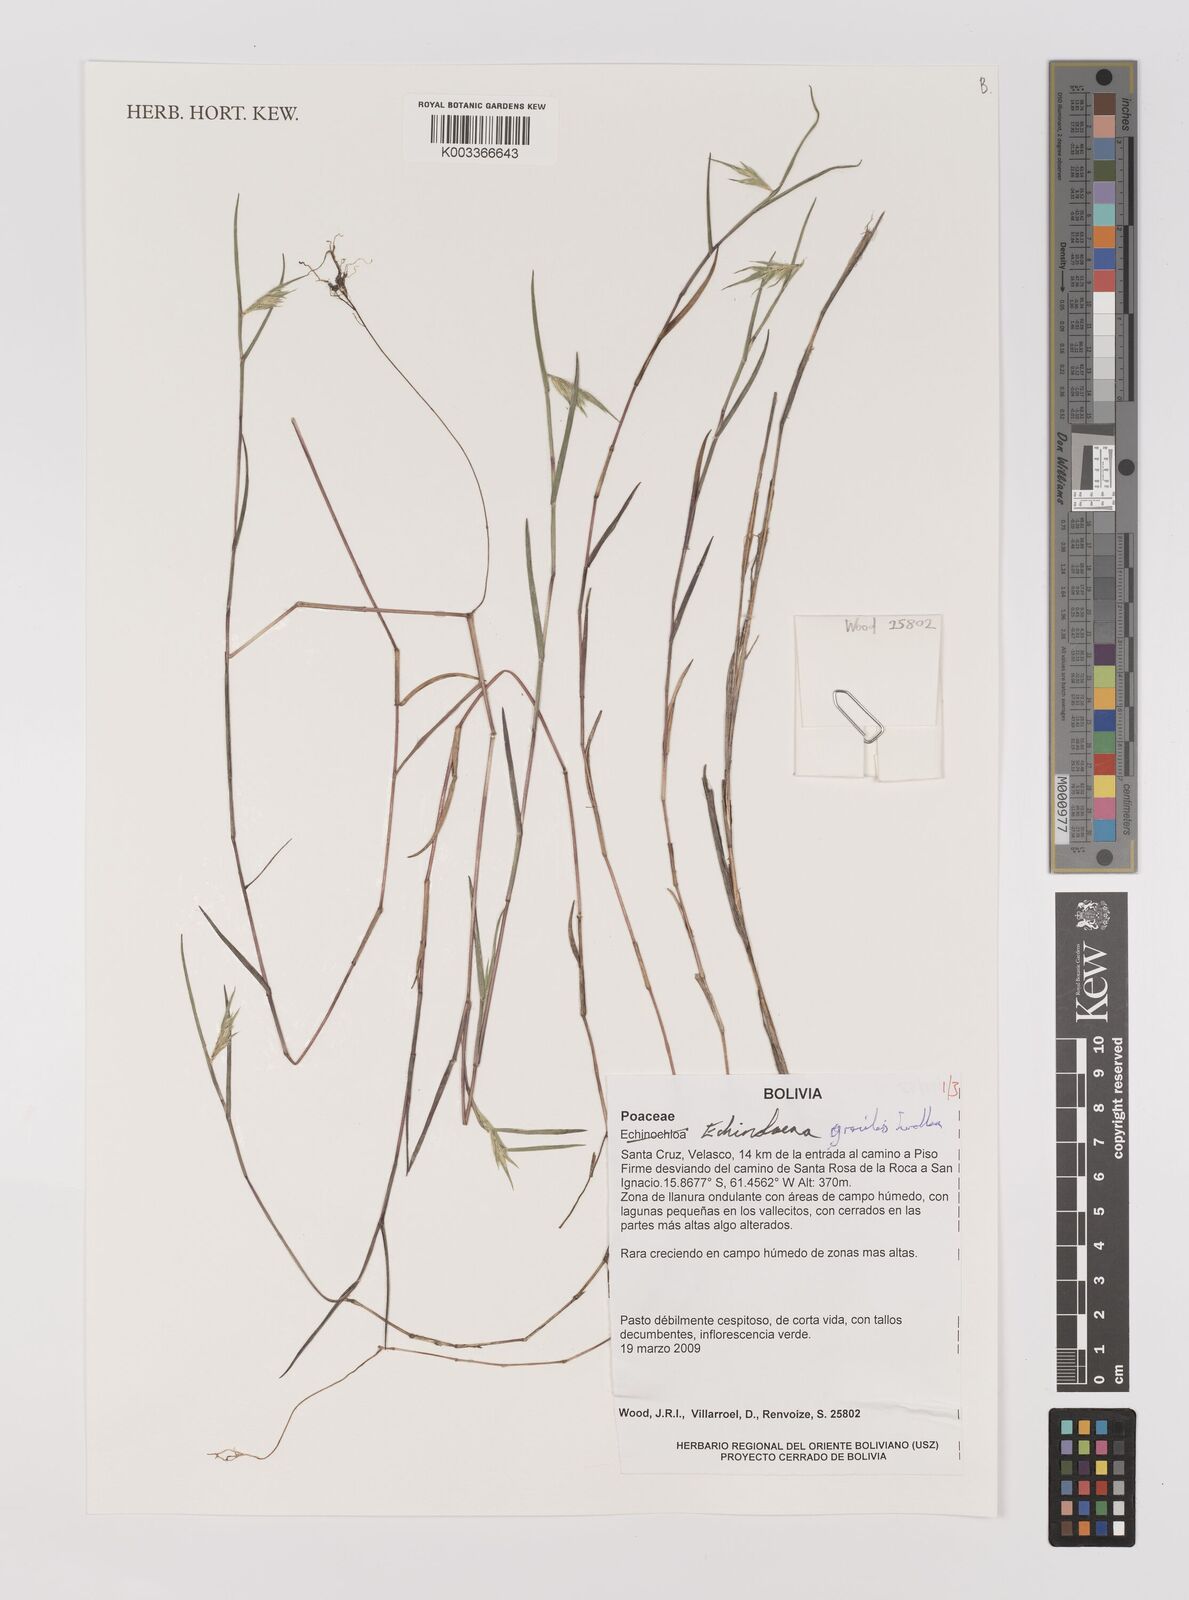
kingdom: Plantae
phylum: Tracheophyta
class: Liliopsida
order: Poales
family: Poaceae
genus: Echinolaena
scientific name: Echinolaena gracilis
